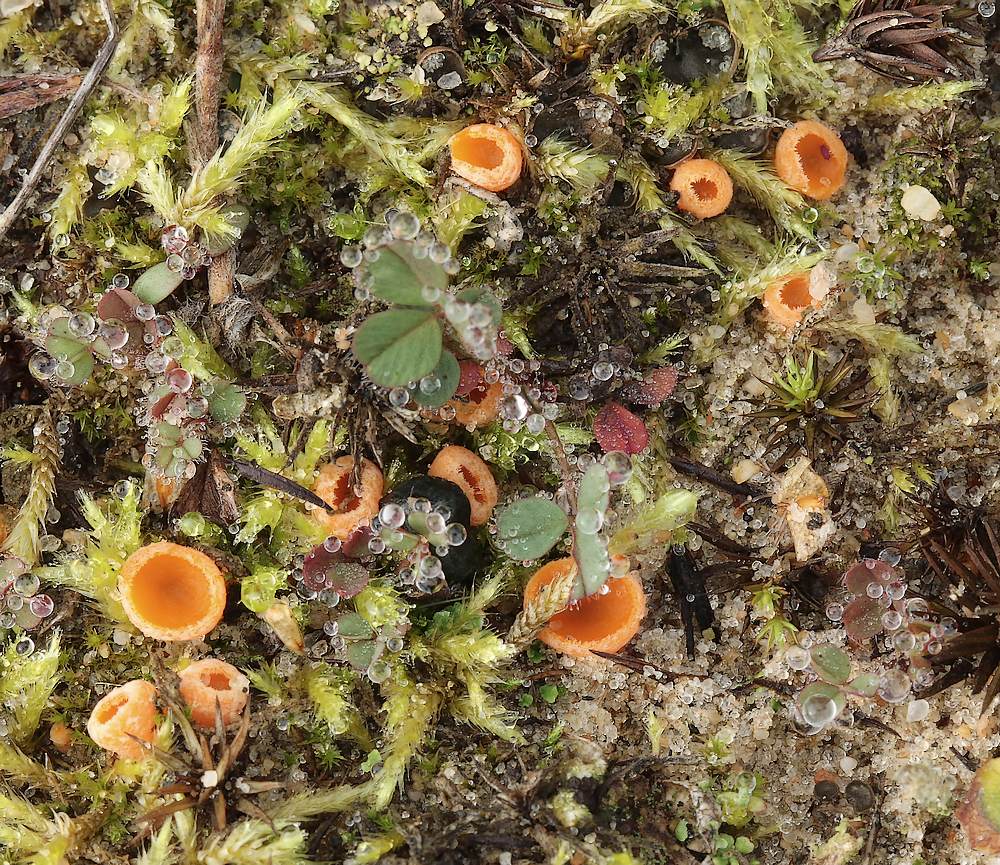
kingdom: Fungi
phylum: Ascomycota
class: Pezizomycetes
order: Pezizales
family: Pyronemataceae
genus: Neottiella
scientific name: Neottiella
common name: mosbæger
